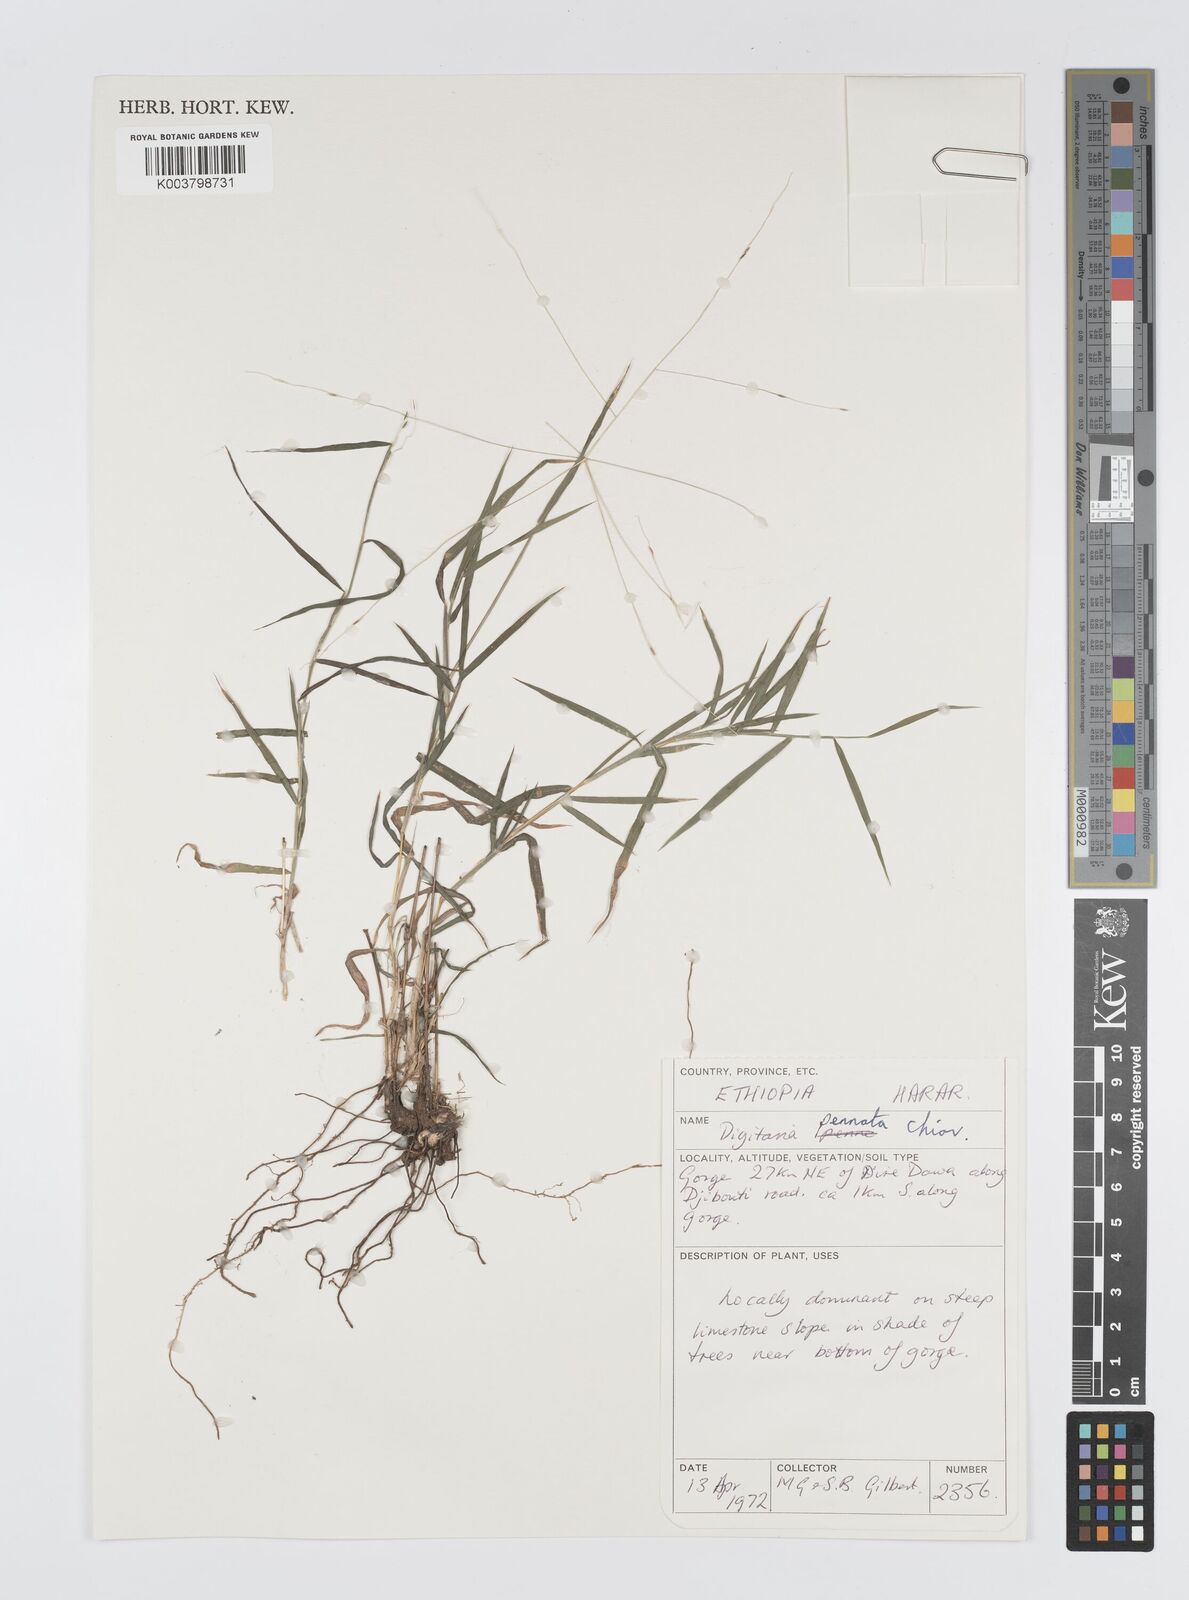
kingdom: Plantae
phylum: Tracheophyta
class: Liliopsida
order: Poales
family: Poaceae
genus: Digitaria
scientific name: Digitaria pennata
